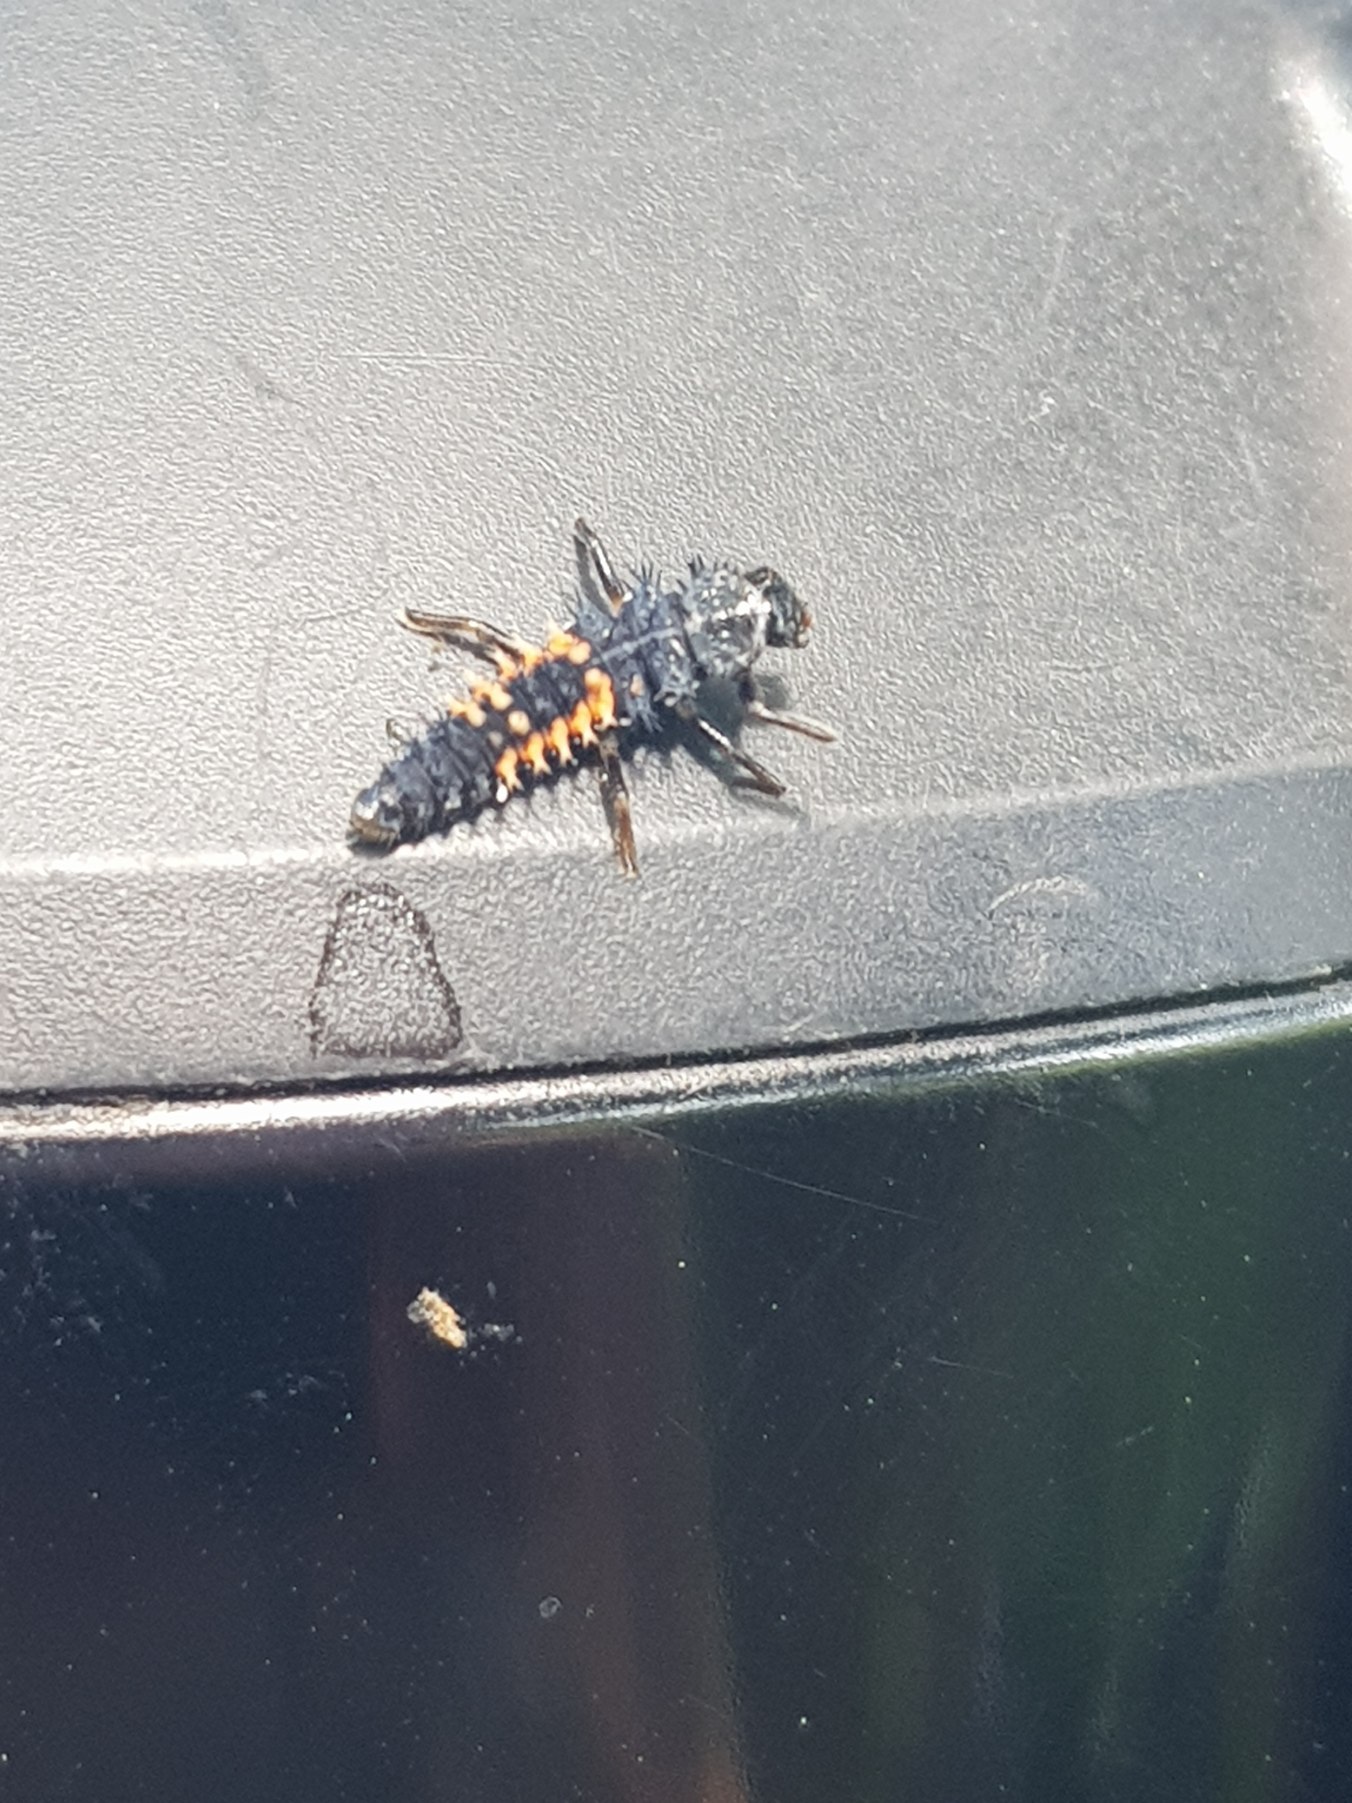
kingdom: Animalia
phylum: Arthropoda
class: Insecta
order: Coleoptera
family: Coccinellidae
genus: Harmonia
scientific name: Harmonia axyridis
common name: Harlekinmariehøne
